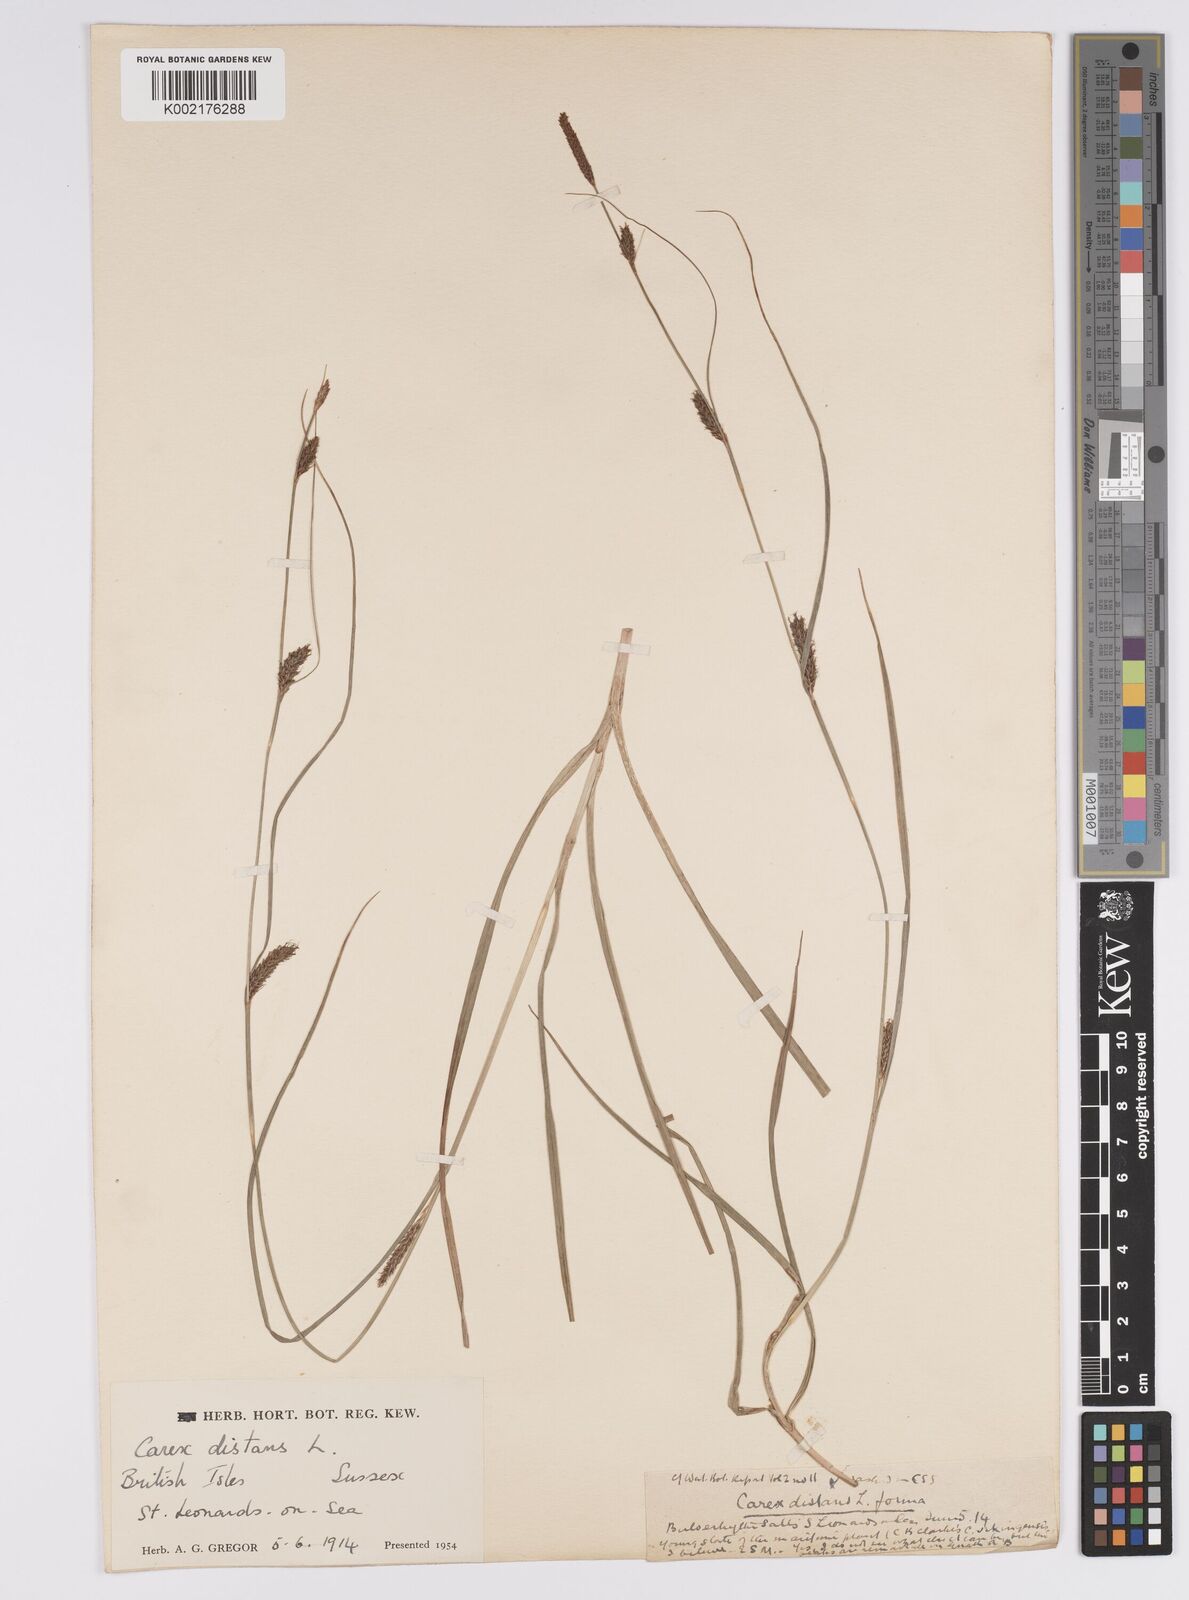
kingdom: Plantae
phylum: Tracheophyta
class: Liliopsida
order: Poales
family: Cyperaceae
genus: Carex
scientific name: Carex distans
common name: Distant sedge
